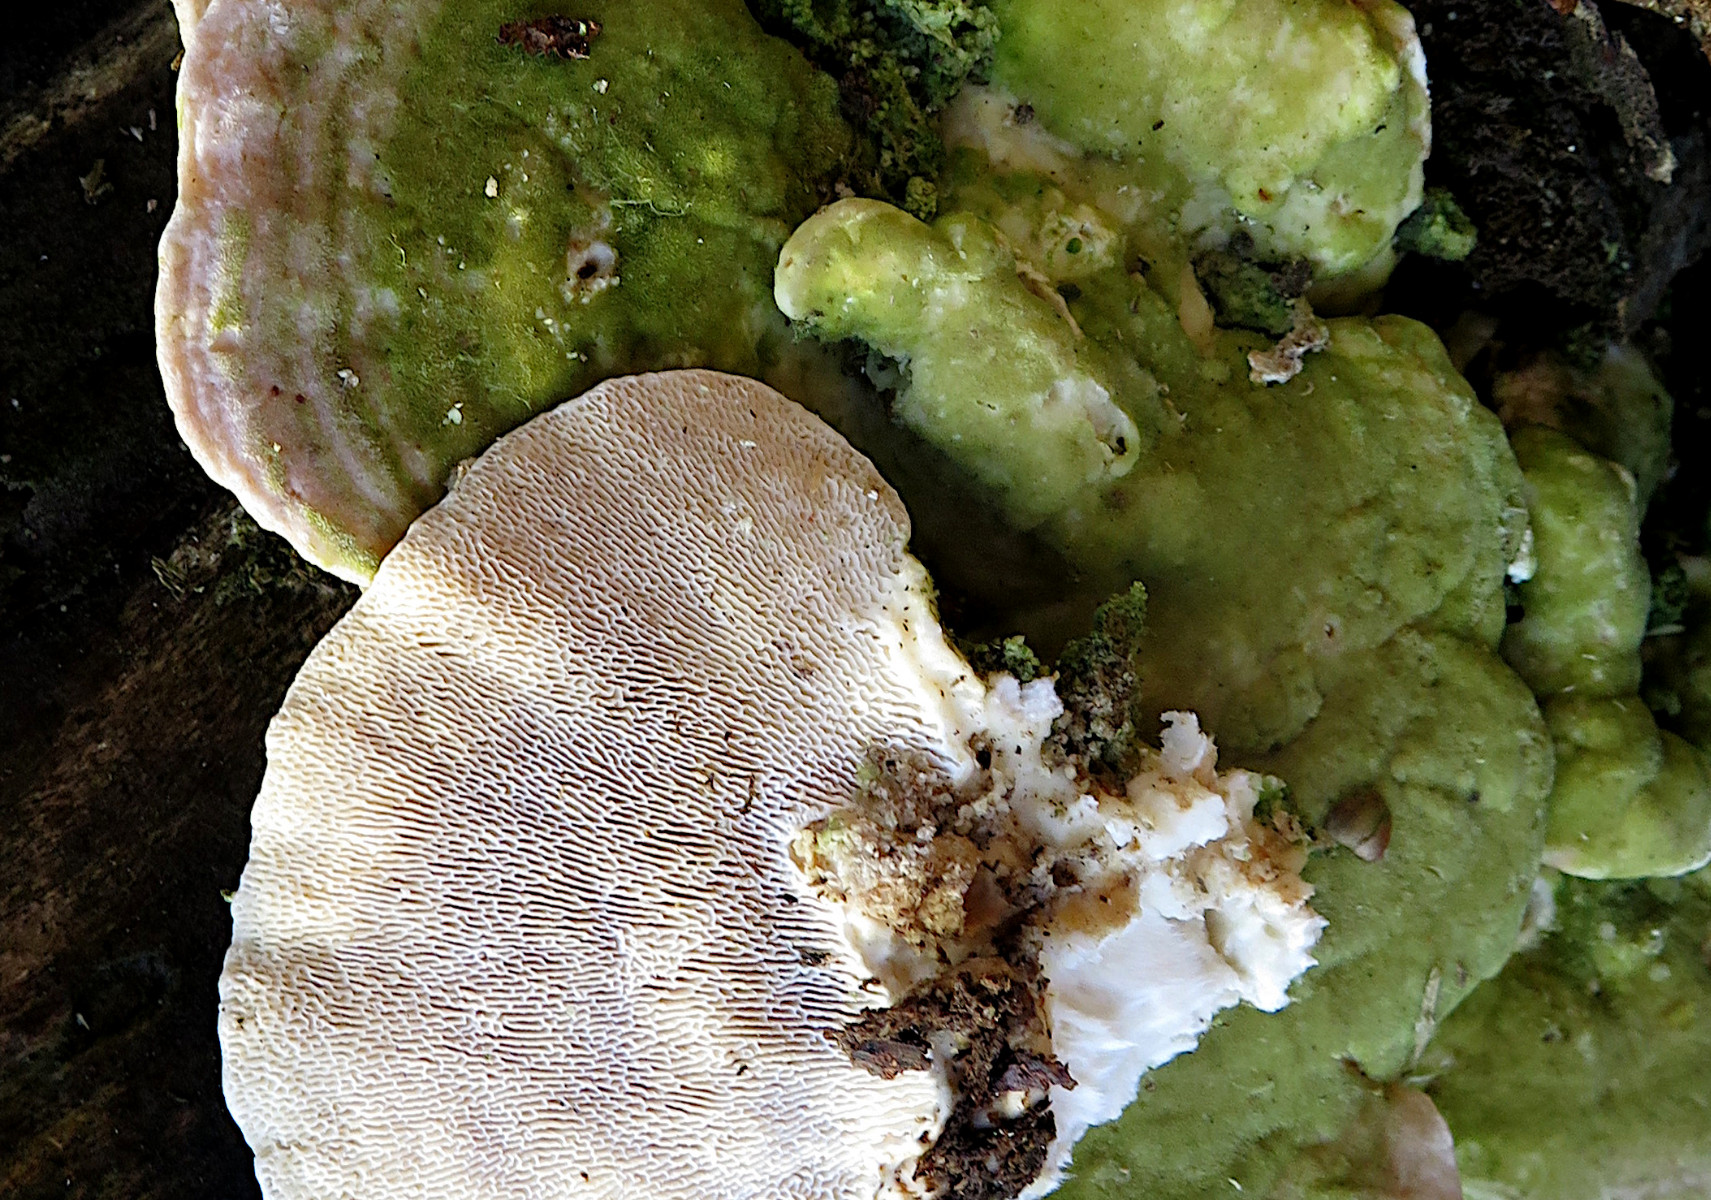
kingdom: Fungi
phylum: Basidiomycota
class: Agaricomycetes
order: Polyporales
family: Polyporaceae
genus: Trametes
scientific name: Trametes gibbosa
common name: puklet læderporesvamp
